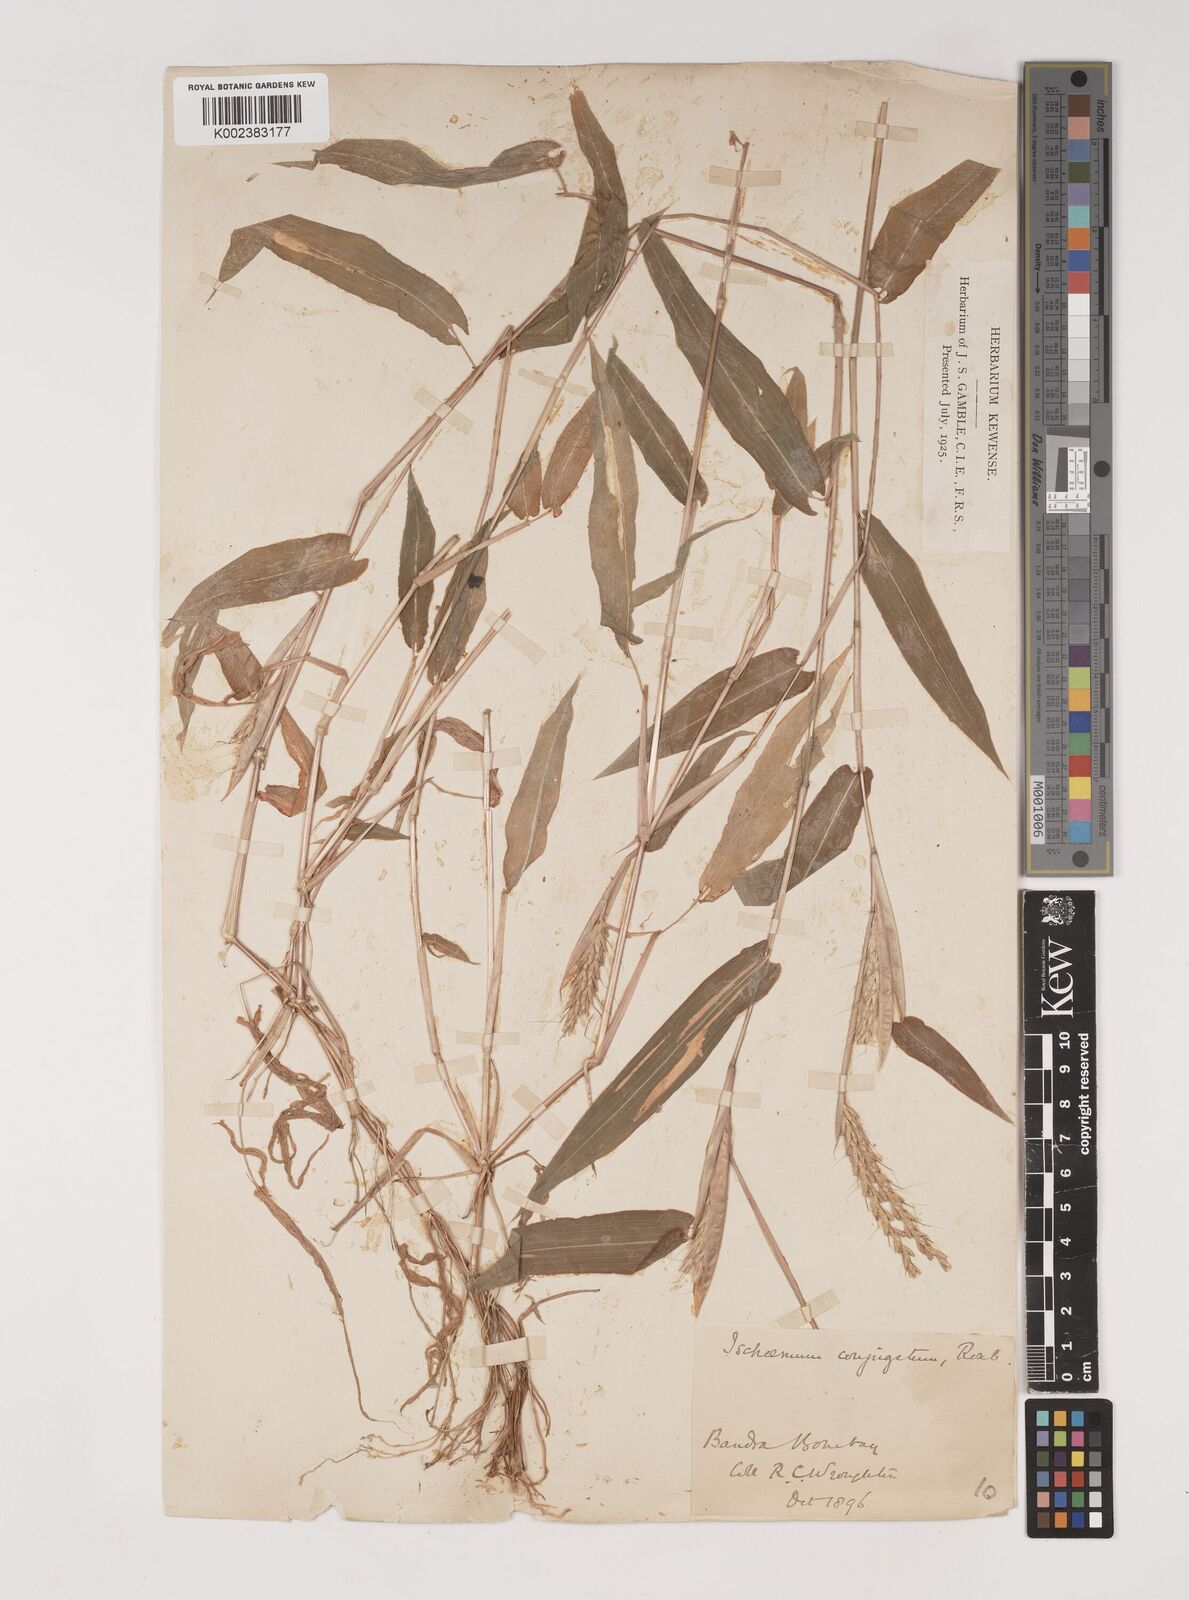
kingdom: Plantae
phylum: Tracheophyta
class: Liliopsida
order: Poales
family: Poaceae
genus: Ischaemum
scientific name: Ischaemum dalzellii
